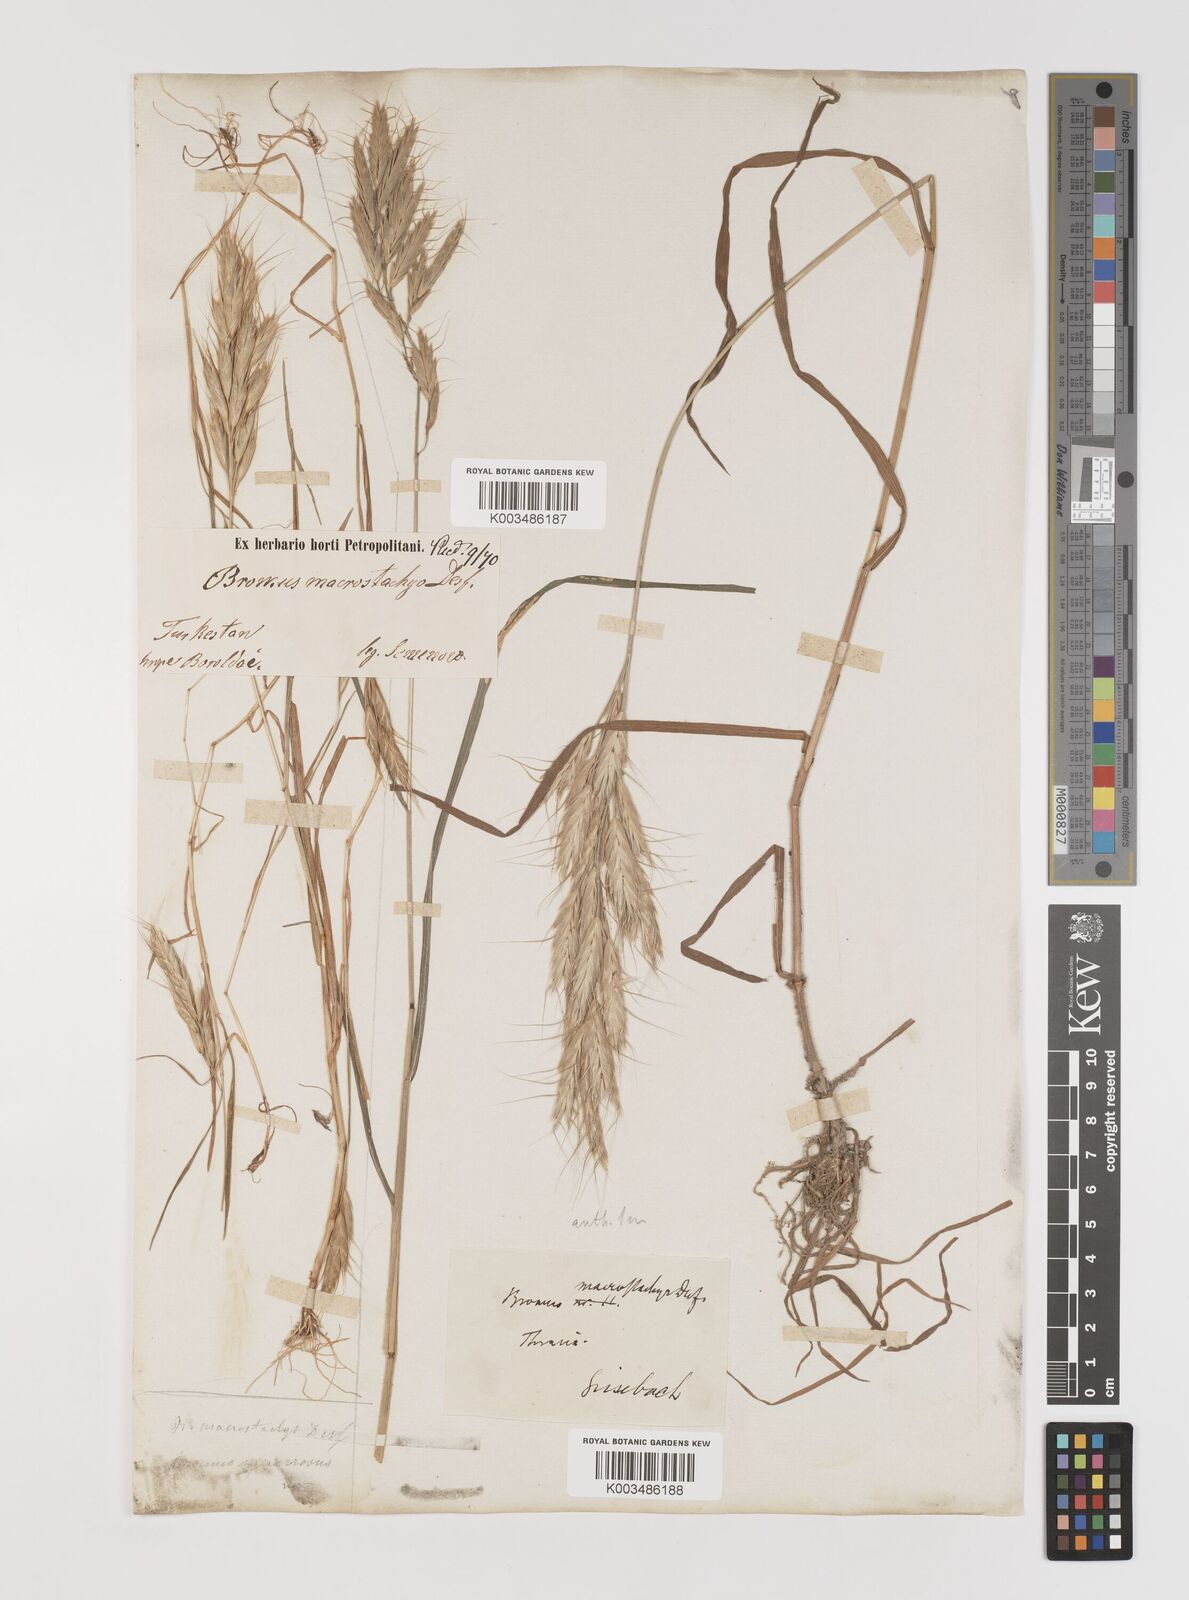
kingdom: Plantae
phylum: Tracheophyta
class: Liliopsida
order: Poales
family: Poaceae
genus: Bromus
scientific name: Bromus lanceolatus
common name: Mediterranean brome
